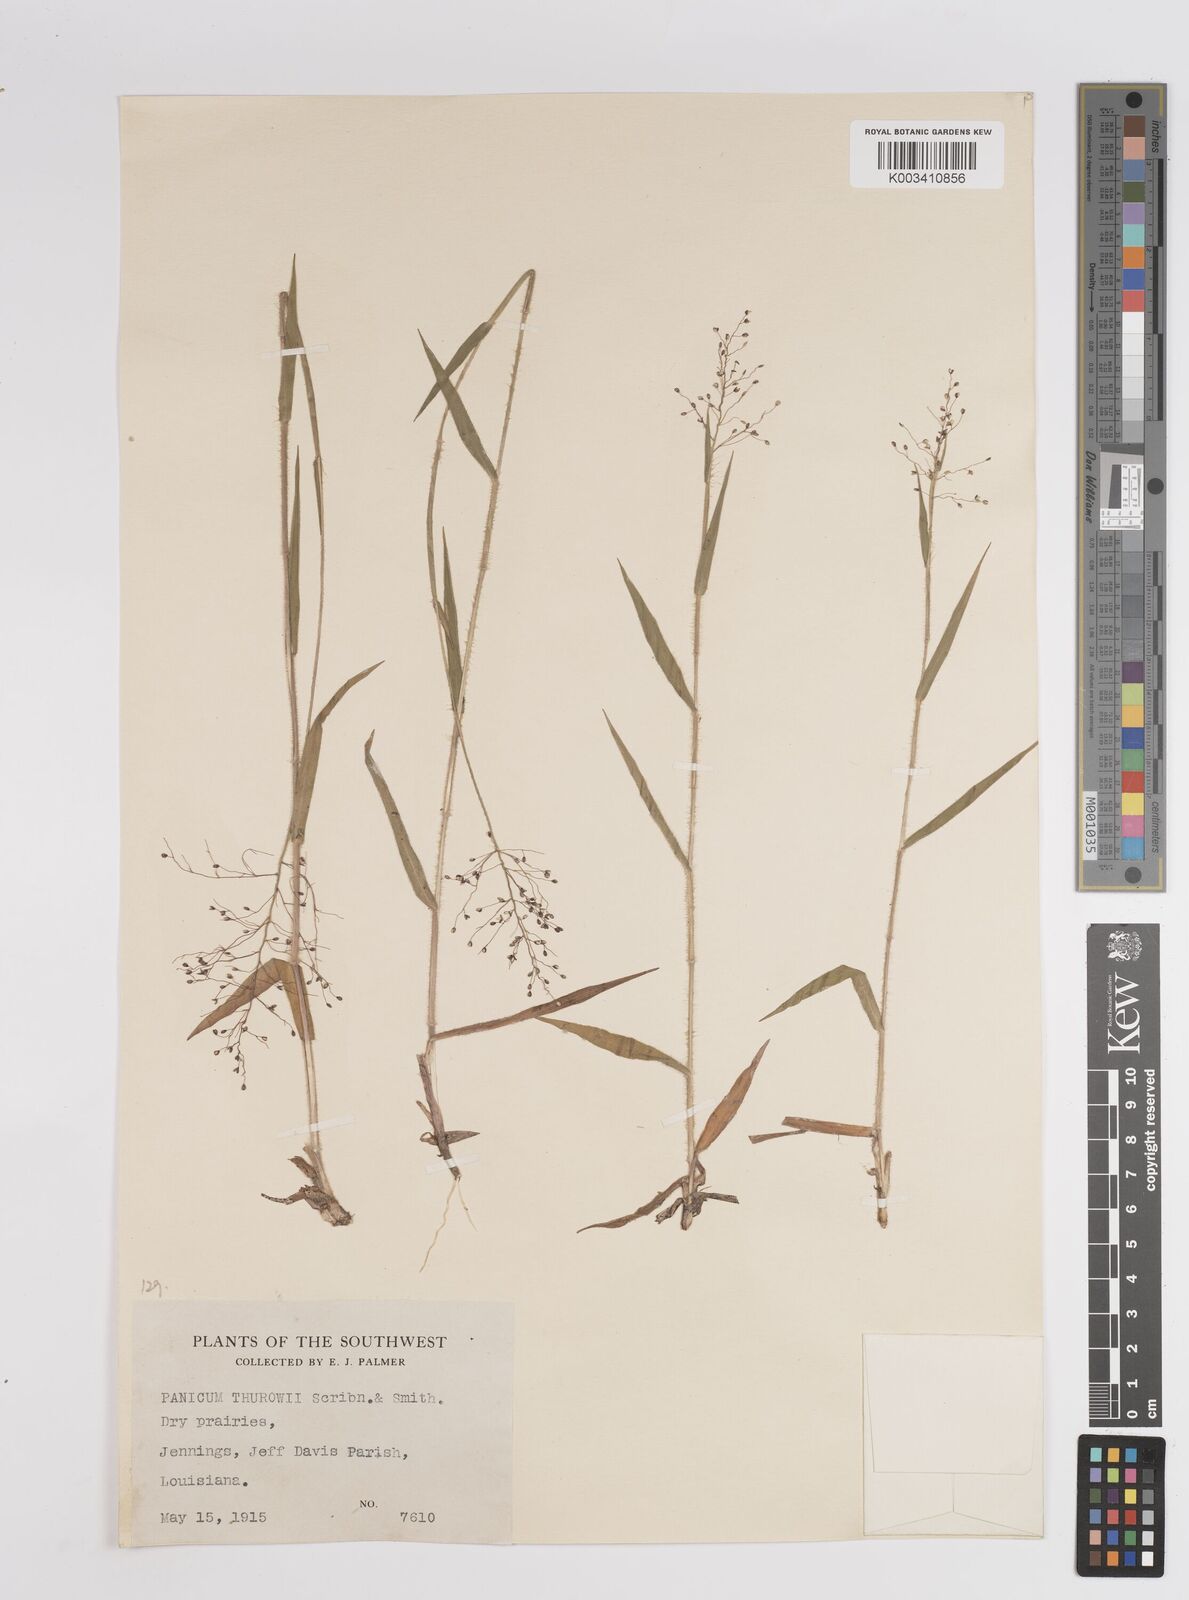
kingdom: Plantae
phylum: Tracheophyta
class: Liliopsida
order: Poales
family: Poaceae
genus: Dichanthelium
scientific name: Dichanthelium acuminatum
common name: Hairy panic grass
